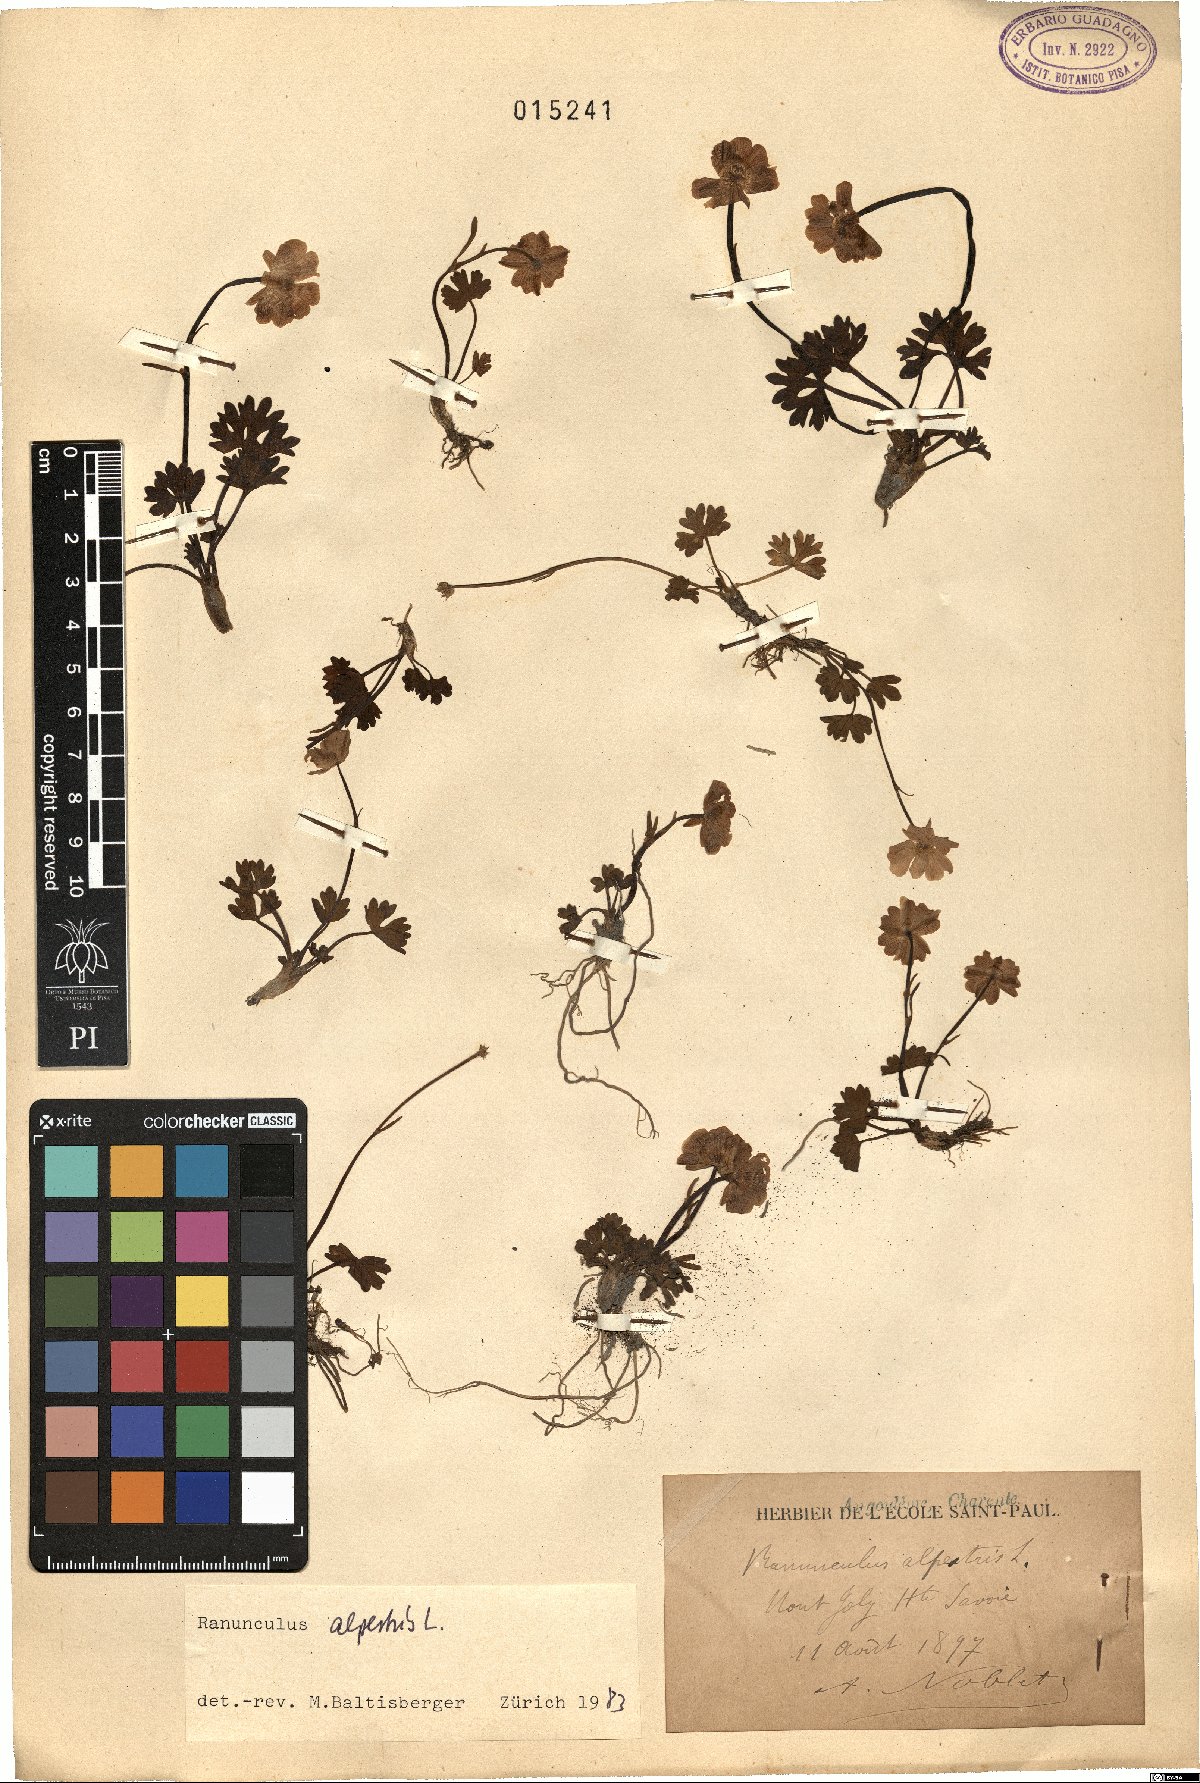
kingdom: Plantae
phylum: Tracheophyta
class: Magnoliopsida
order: Ranunculales
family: Ranunculaceae
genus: Ranunculus
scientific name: Ranunculus alpestris
